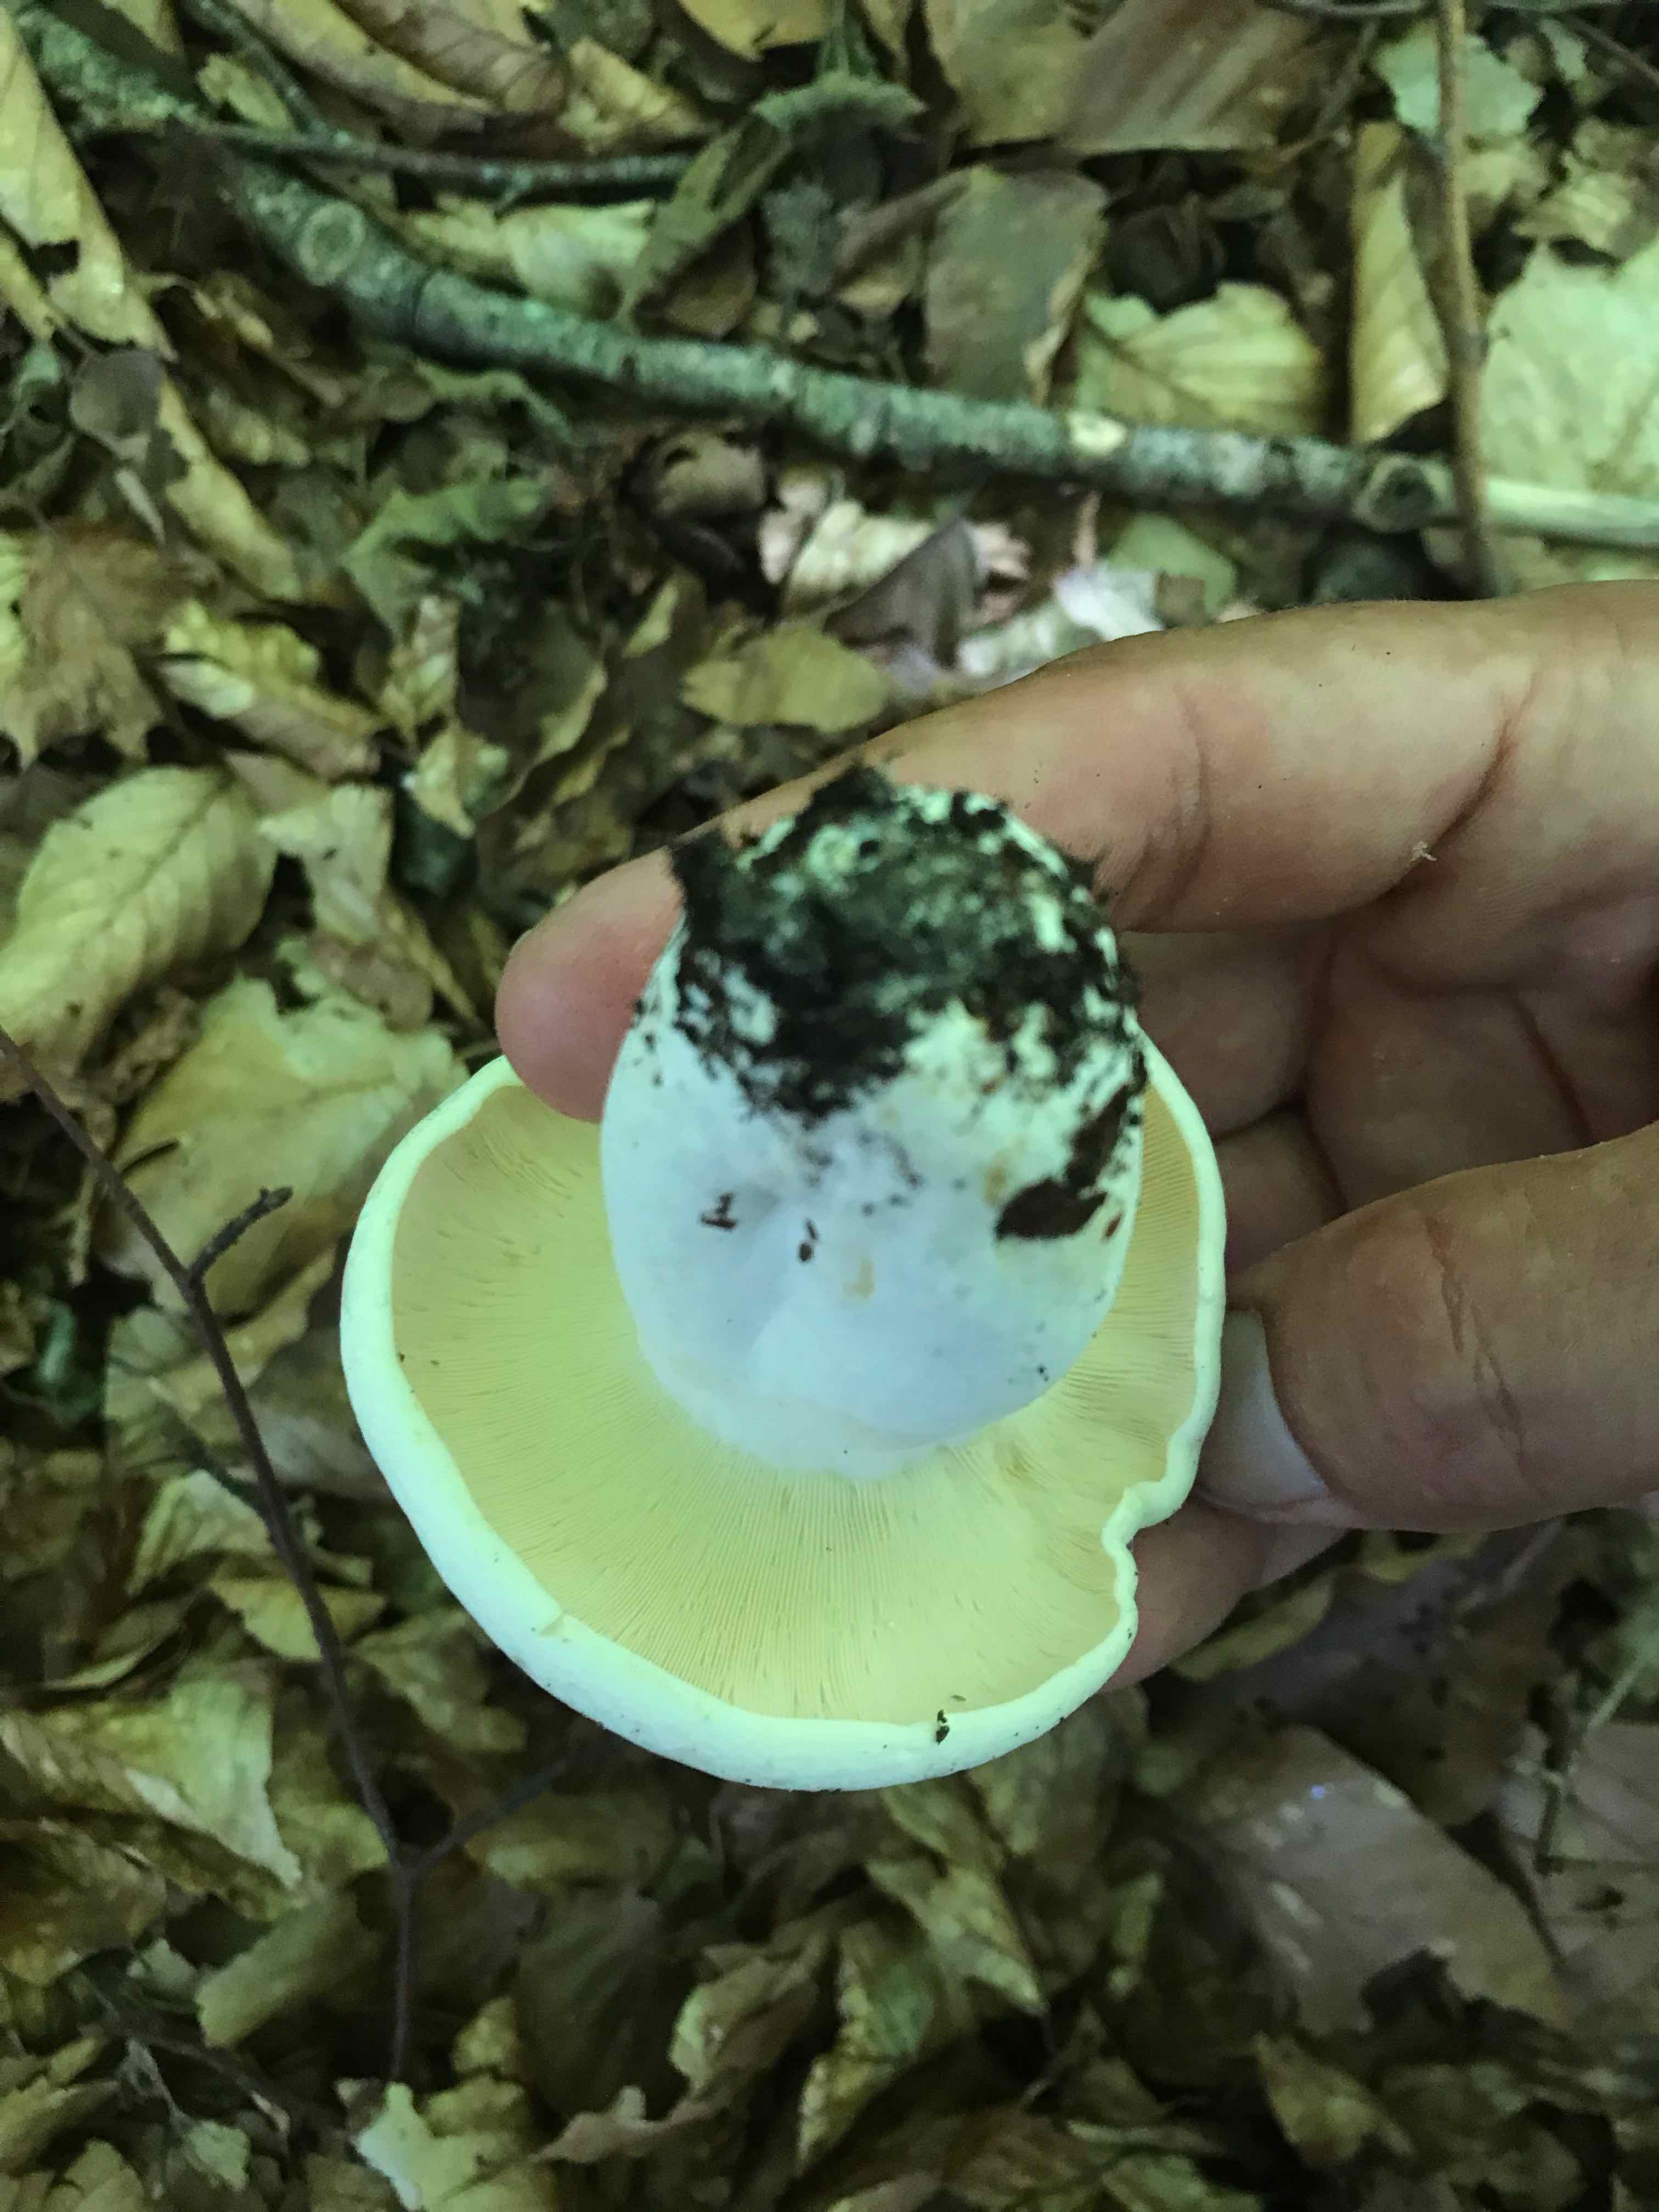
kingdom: Fungi
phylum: Basidiomycota
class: Agaricomycetes
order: Russulales
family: Russulaceae
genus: Lactifluus
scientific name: Lactifluus piperatus
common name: peber-mælkehat
